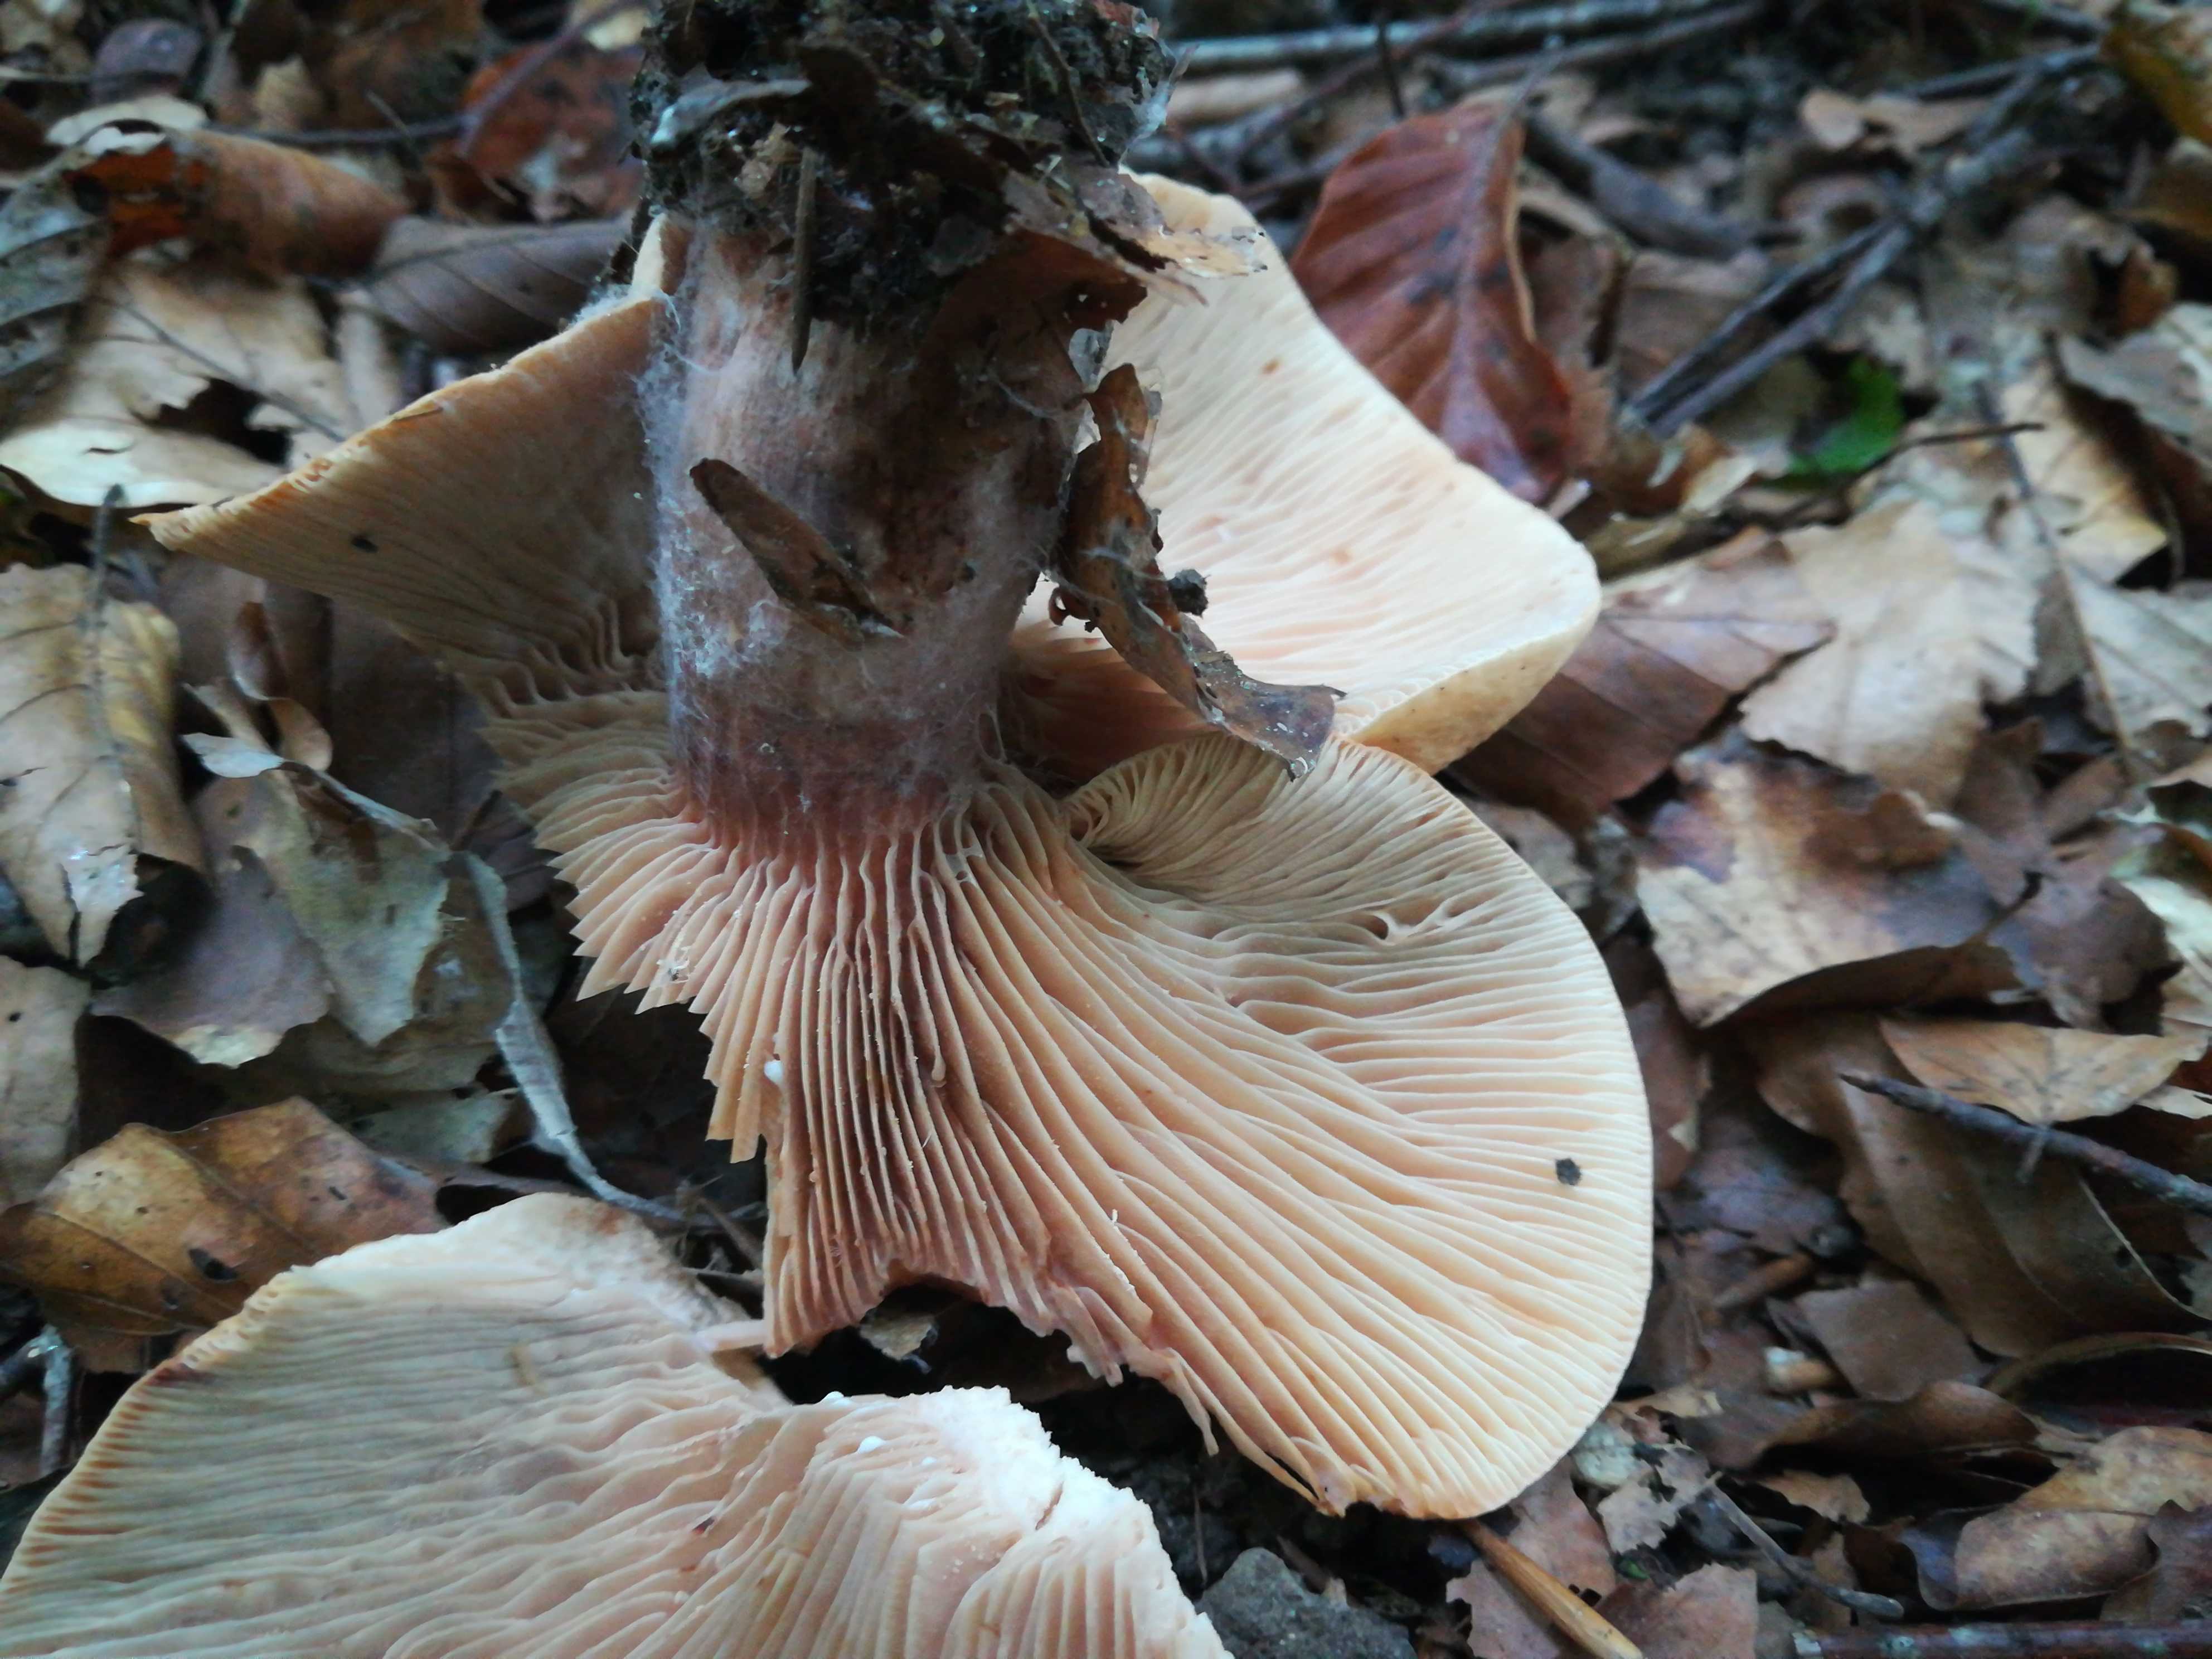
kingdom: Fungi
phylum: Basidiomycota
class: Agaricomycetes
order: Russulales
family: Russulaceae
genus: Lactarius
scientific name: Lactarius rubrocinctus
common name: halsbånd-mælkehat
